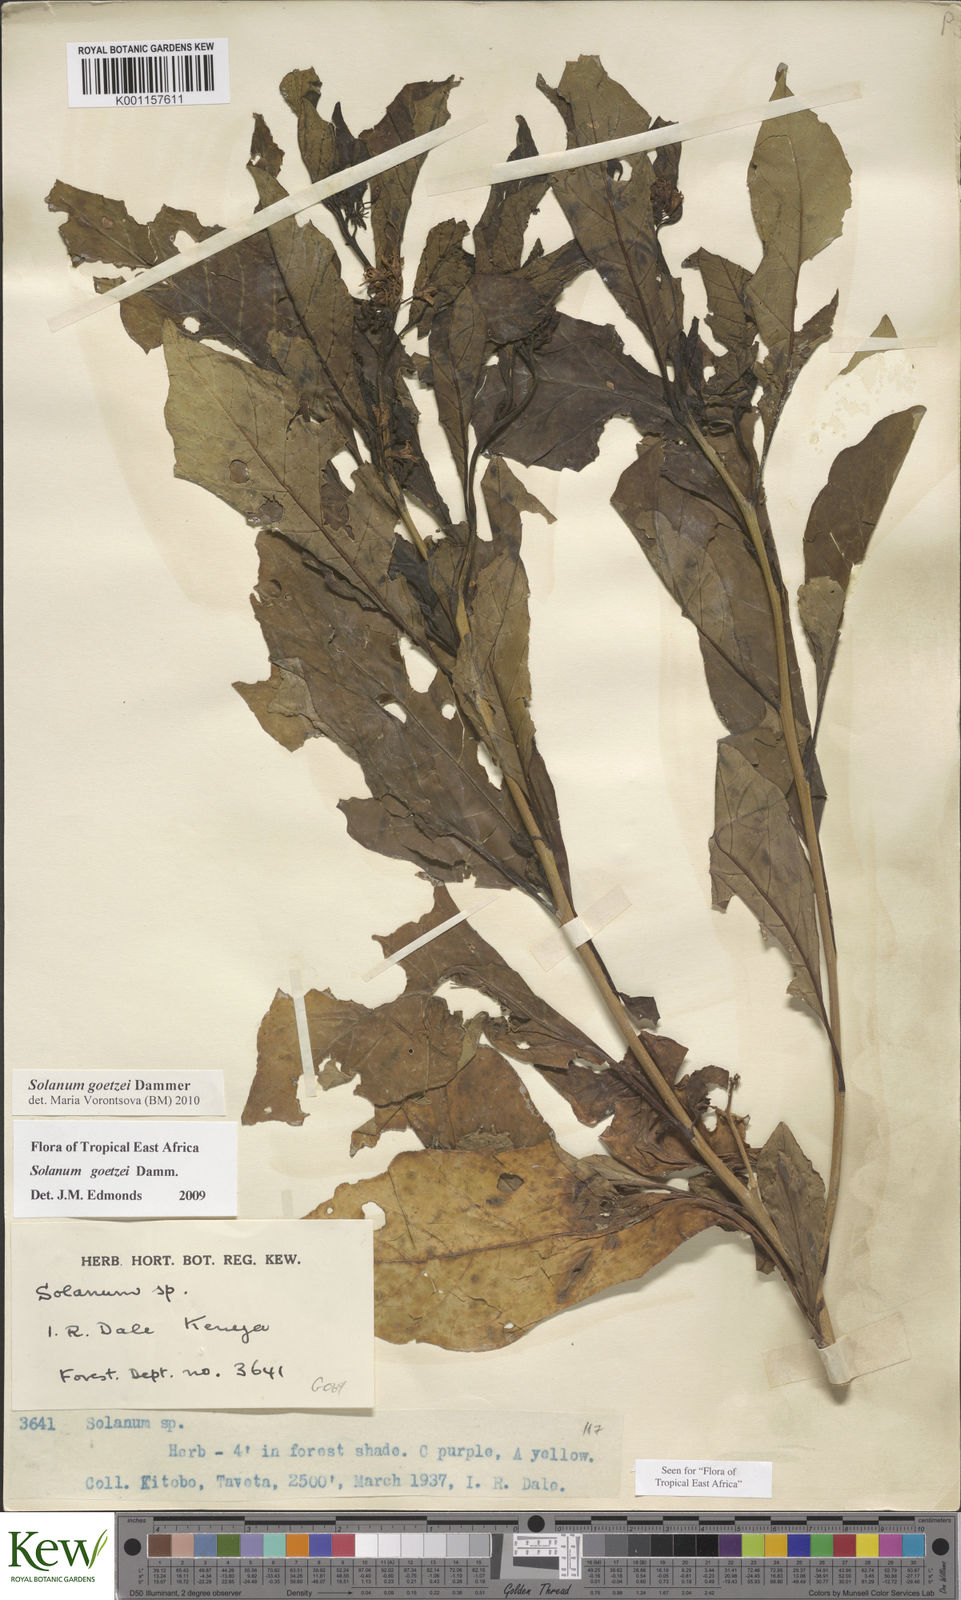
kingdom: Plantae
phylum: Tracheophyta
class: Magnoliopsida
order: Solanales
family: Solanaceae
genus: Solanum
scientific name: Solanum goetzei
